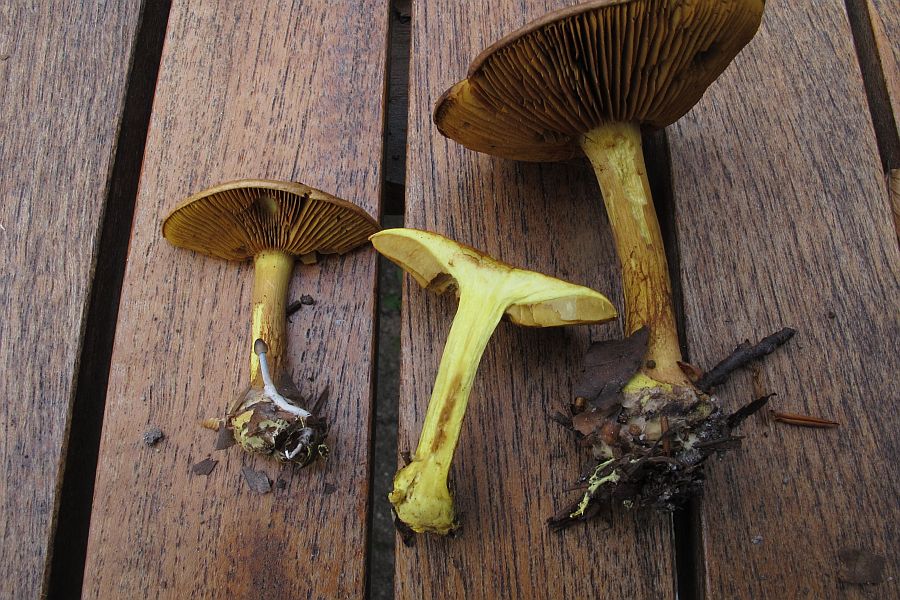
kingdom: Fungi
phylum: Basidiomycota
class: Agaricomycetes
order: Agaricales
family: Cortinariaceae
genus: Calonarius
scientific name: Calonarius citrinus
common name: citrongul slørhat
